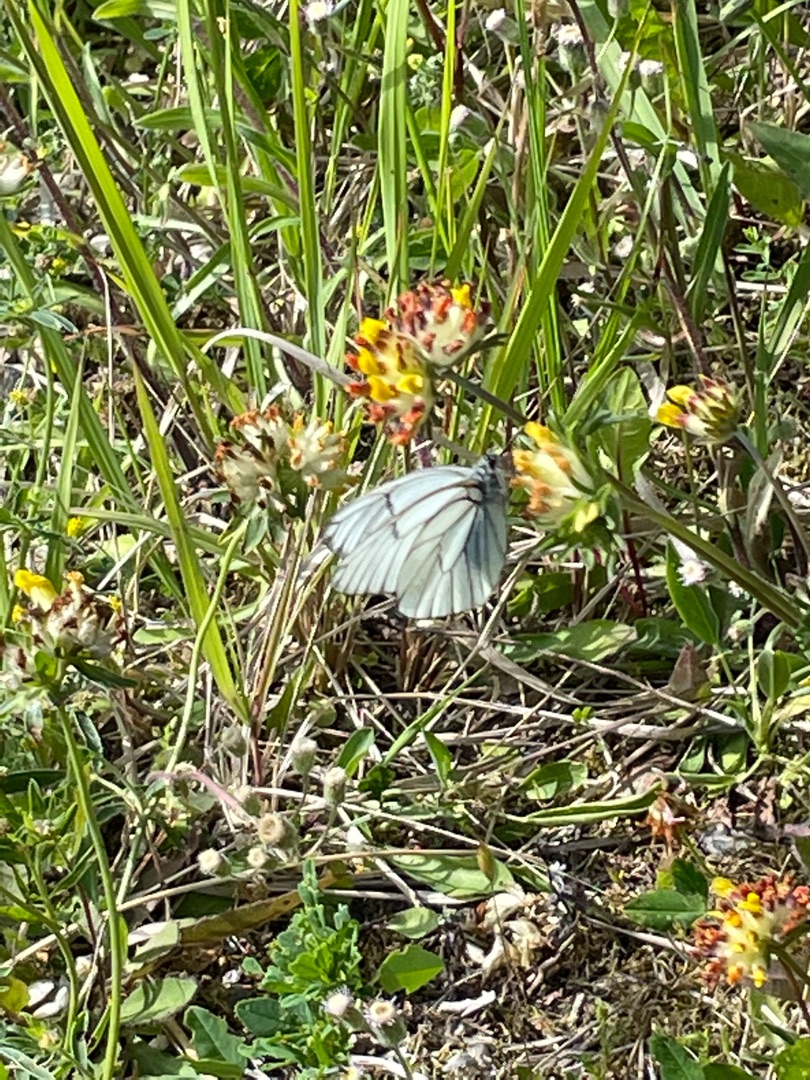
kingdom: Animalia
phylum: Arthropoda
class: Insecta
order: Lepidoptera
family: Pieridae
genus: Aporia
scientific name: Aporia crataegi
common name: Sortåret hvidvinge
